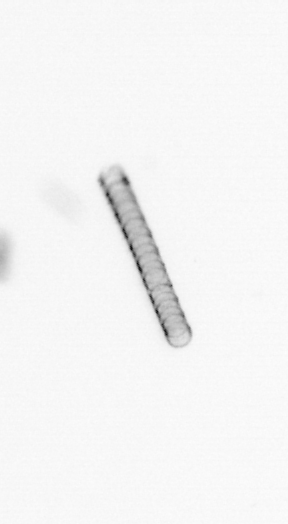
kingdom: Chromista
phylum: Ochrophyta
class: Bacillariophyceae
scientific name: Bacillariophyceae
